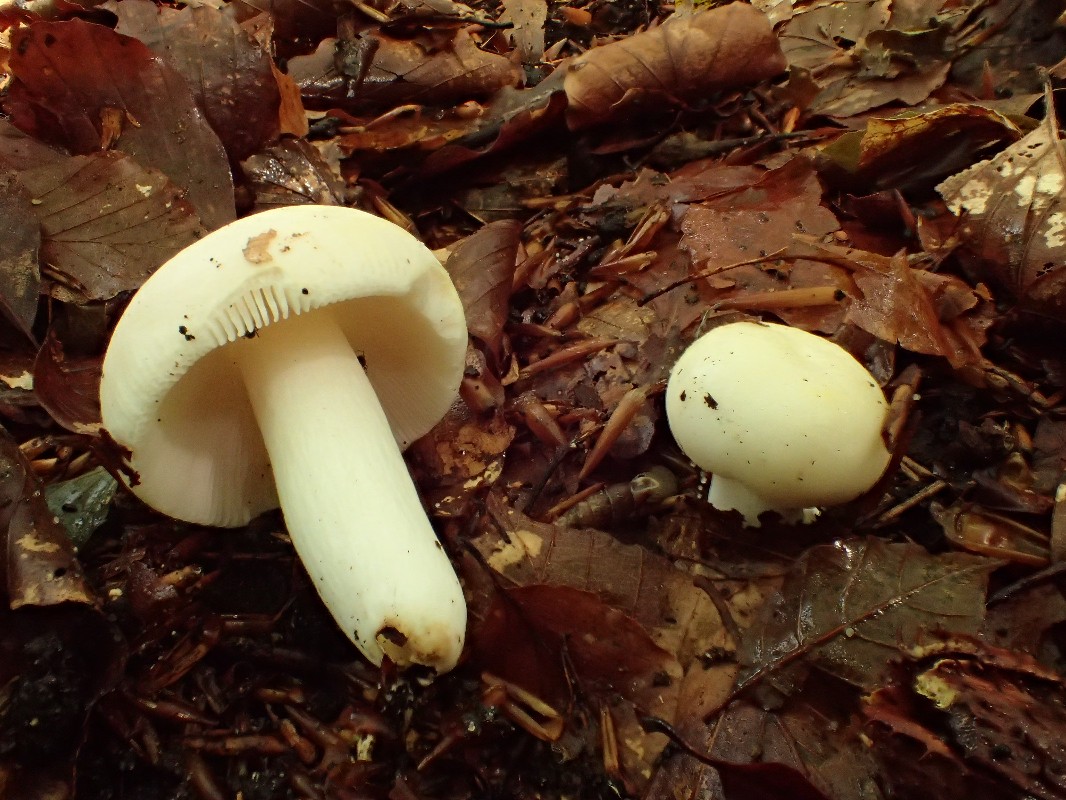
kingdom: Fungi
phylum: Basidiomycota
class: Agaricomycetes
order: Russulales
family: Russulaceae
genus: Russula
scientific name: Russula violeipes
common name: ferskengul skørhat
